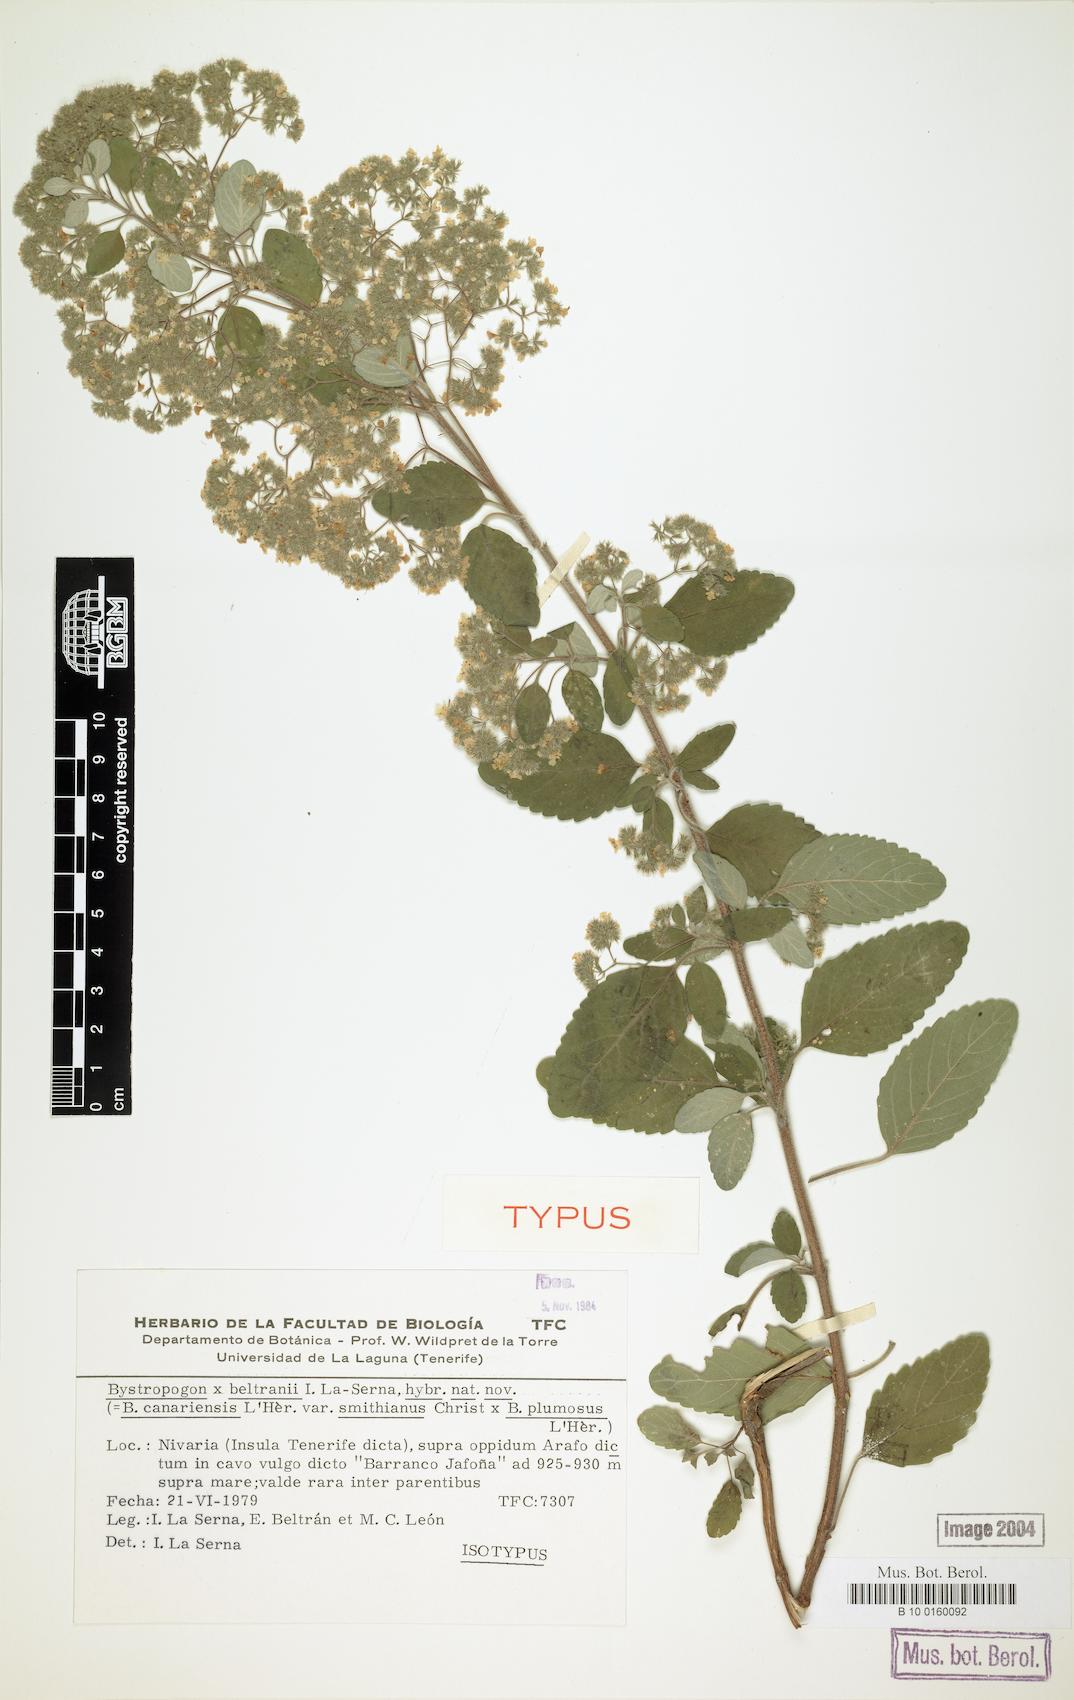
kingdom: Plantae
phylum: Tracheophyta
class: Magnoliopsida
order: Lamiales
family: Lamiaceae
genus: Bystropogon
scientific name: Bystropogon beltraniae
